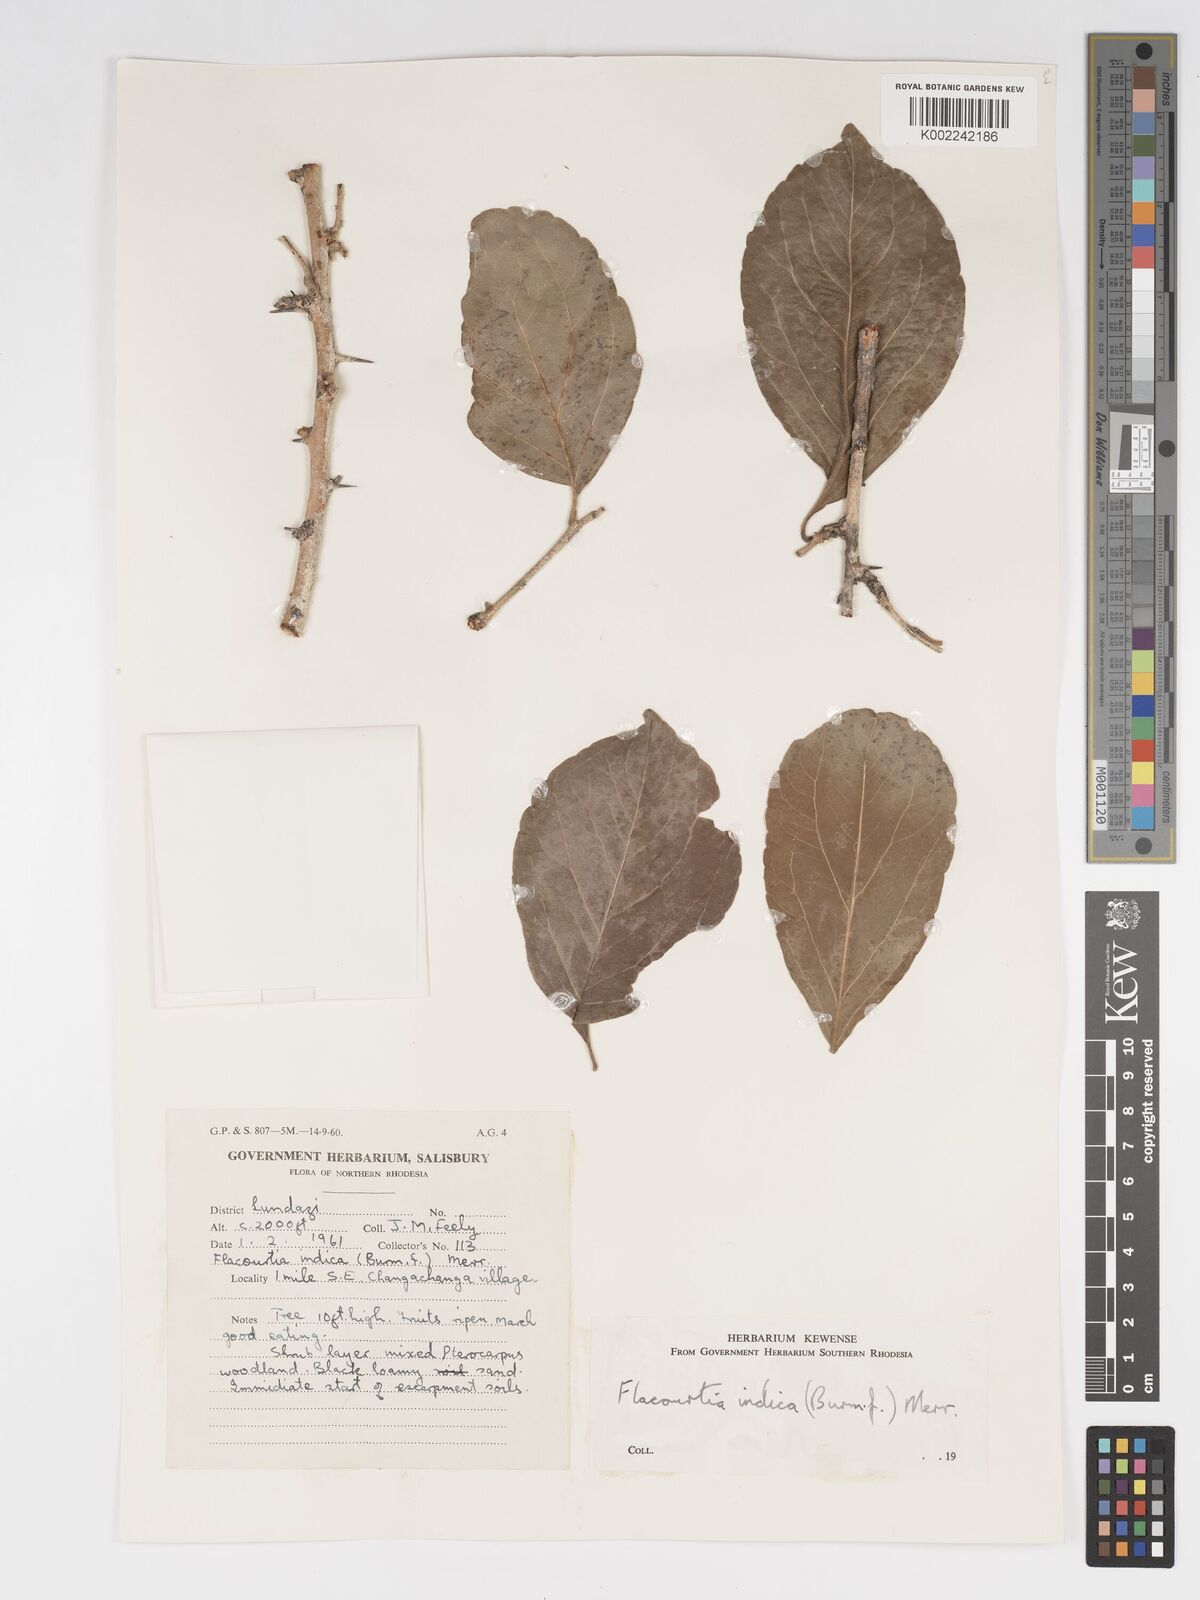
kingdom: Plantae
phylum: Tracheophyta
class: Magnoliopsida
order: Malpighiales
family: Salicaceae
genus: Flacourtia
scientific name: Flacourtia indica
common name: Governor's plum
